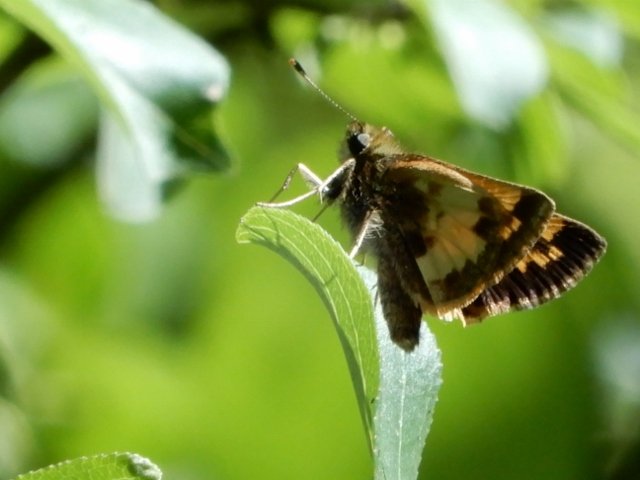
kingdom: Animalia
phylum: Arthropoda
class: Insecta
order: Lepidoptera
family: Hesperiidae
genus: Lon
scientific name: Lon hobomok
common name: Hobomok Skipper
